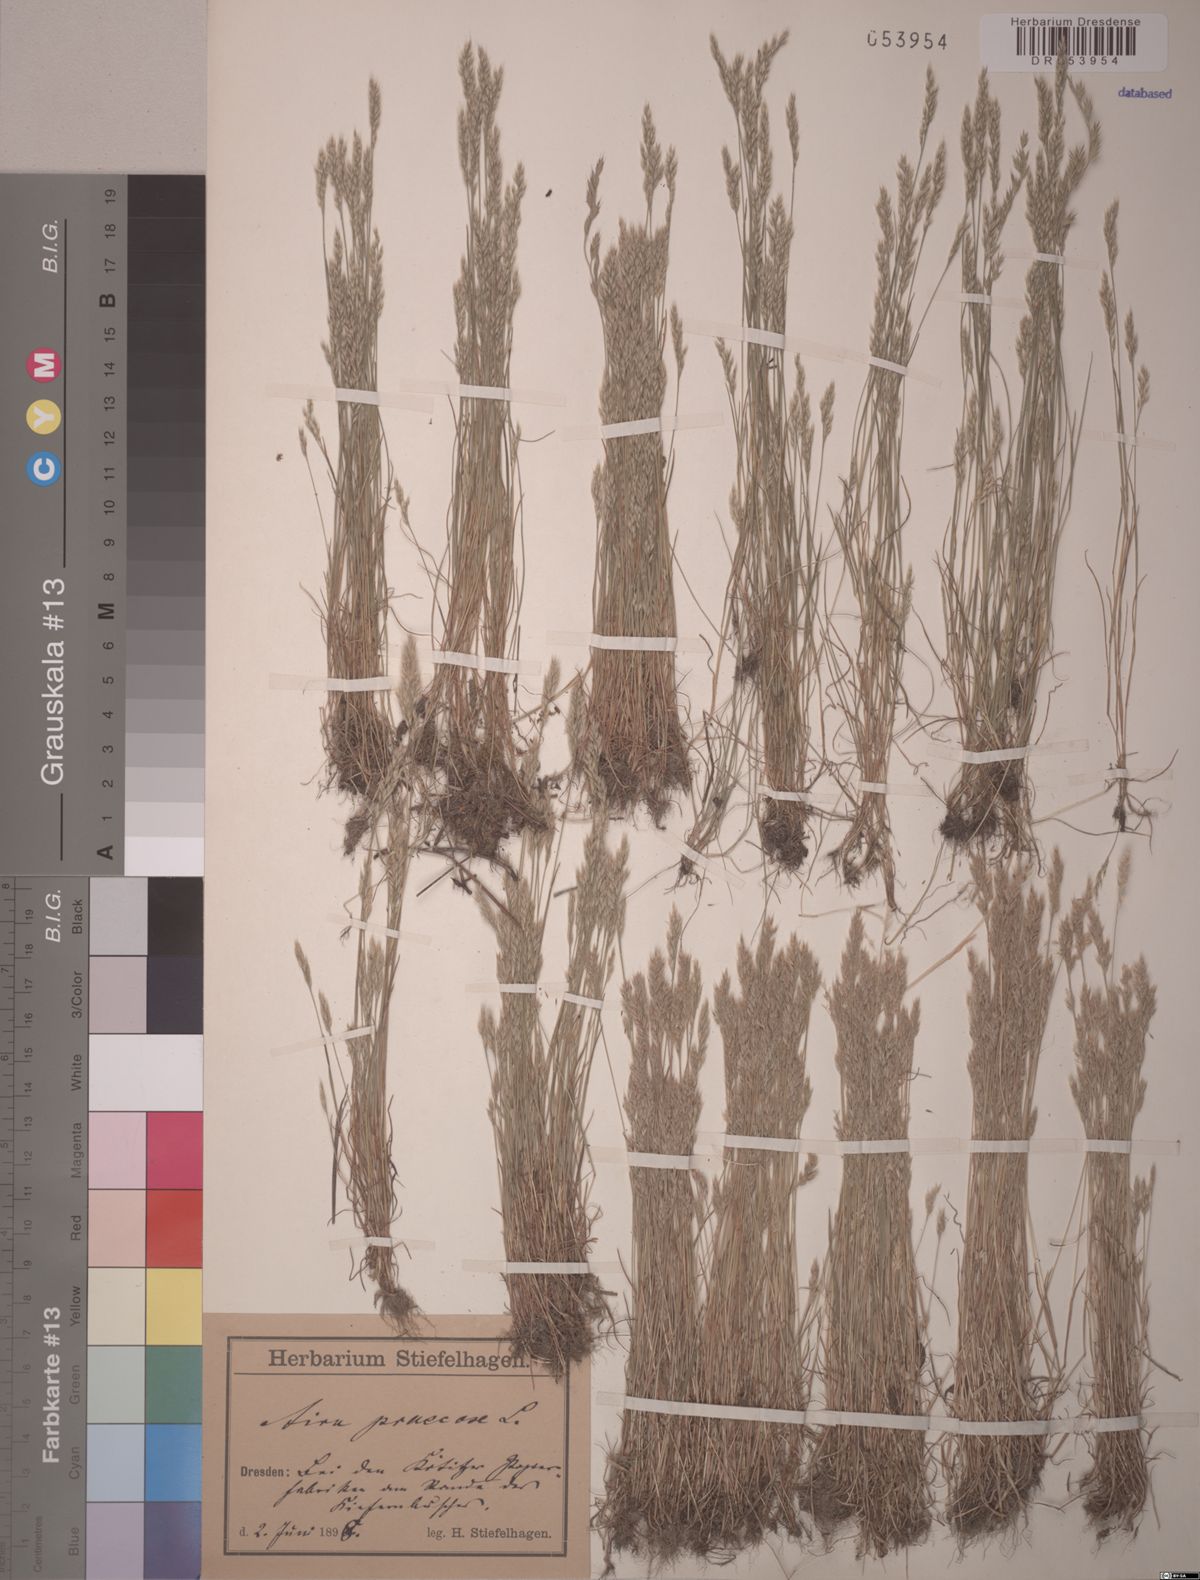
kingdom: Plantae
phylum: Tracheophyta
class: Liliopsida
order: Poales
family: Poaceae
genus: Aira
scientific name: Aira praecox
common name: Early hair-grass
